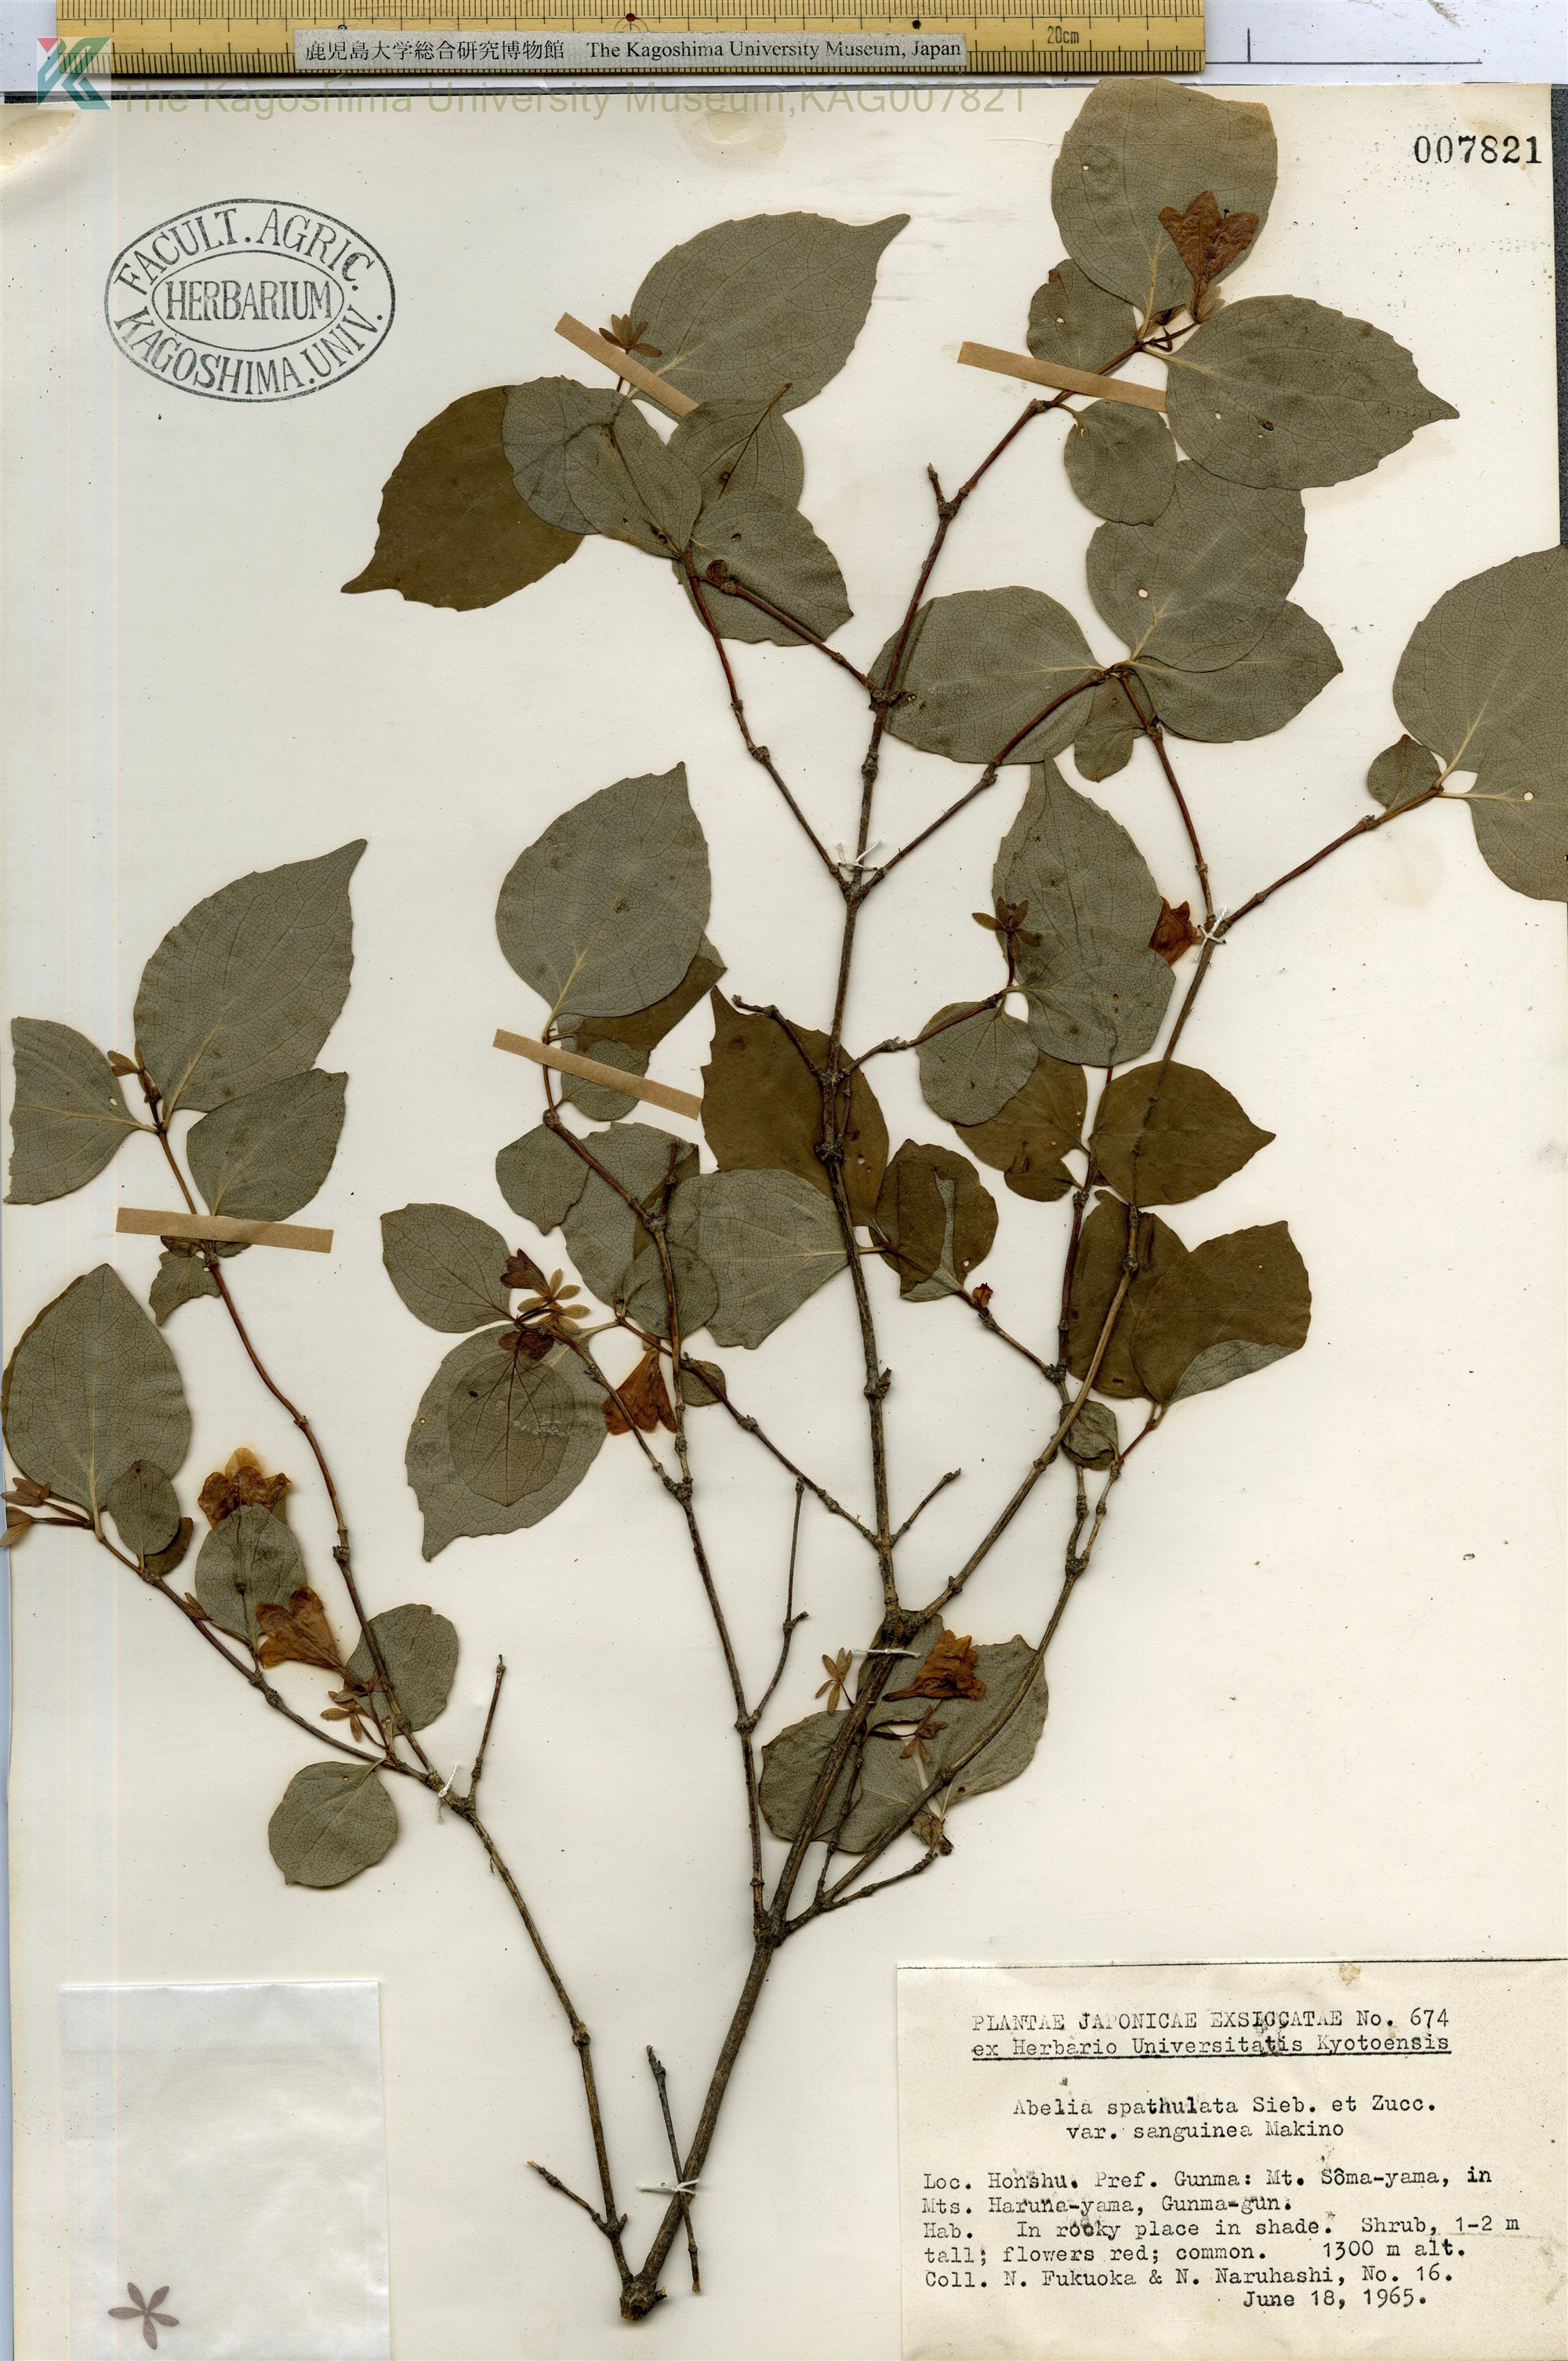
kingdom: Plantae
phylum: Tracheophyta
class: Magnoliopsida
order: Dipsacales
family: Caprifoliaceae
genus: Diabelia
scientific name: Diabelia sanguinea
